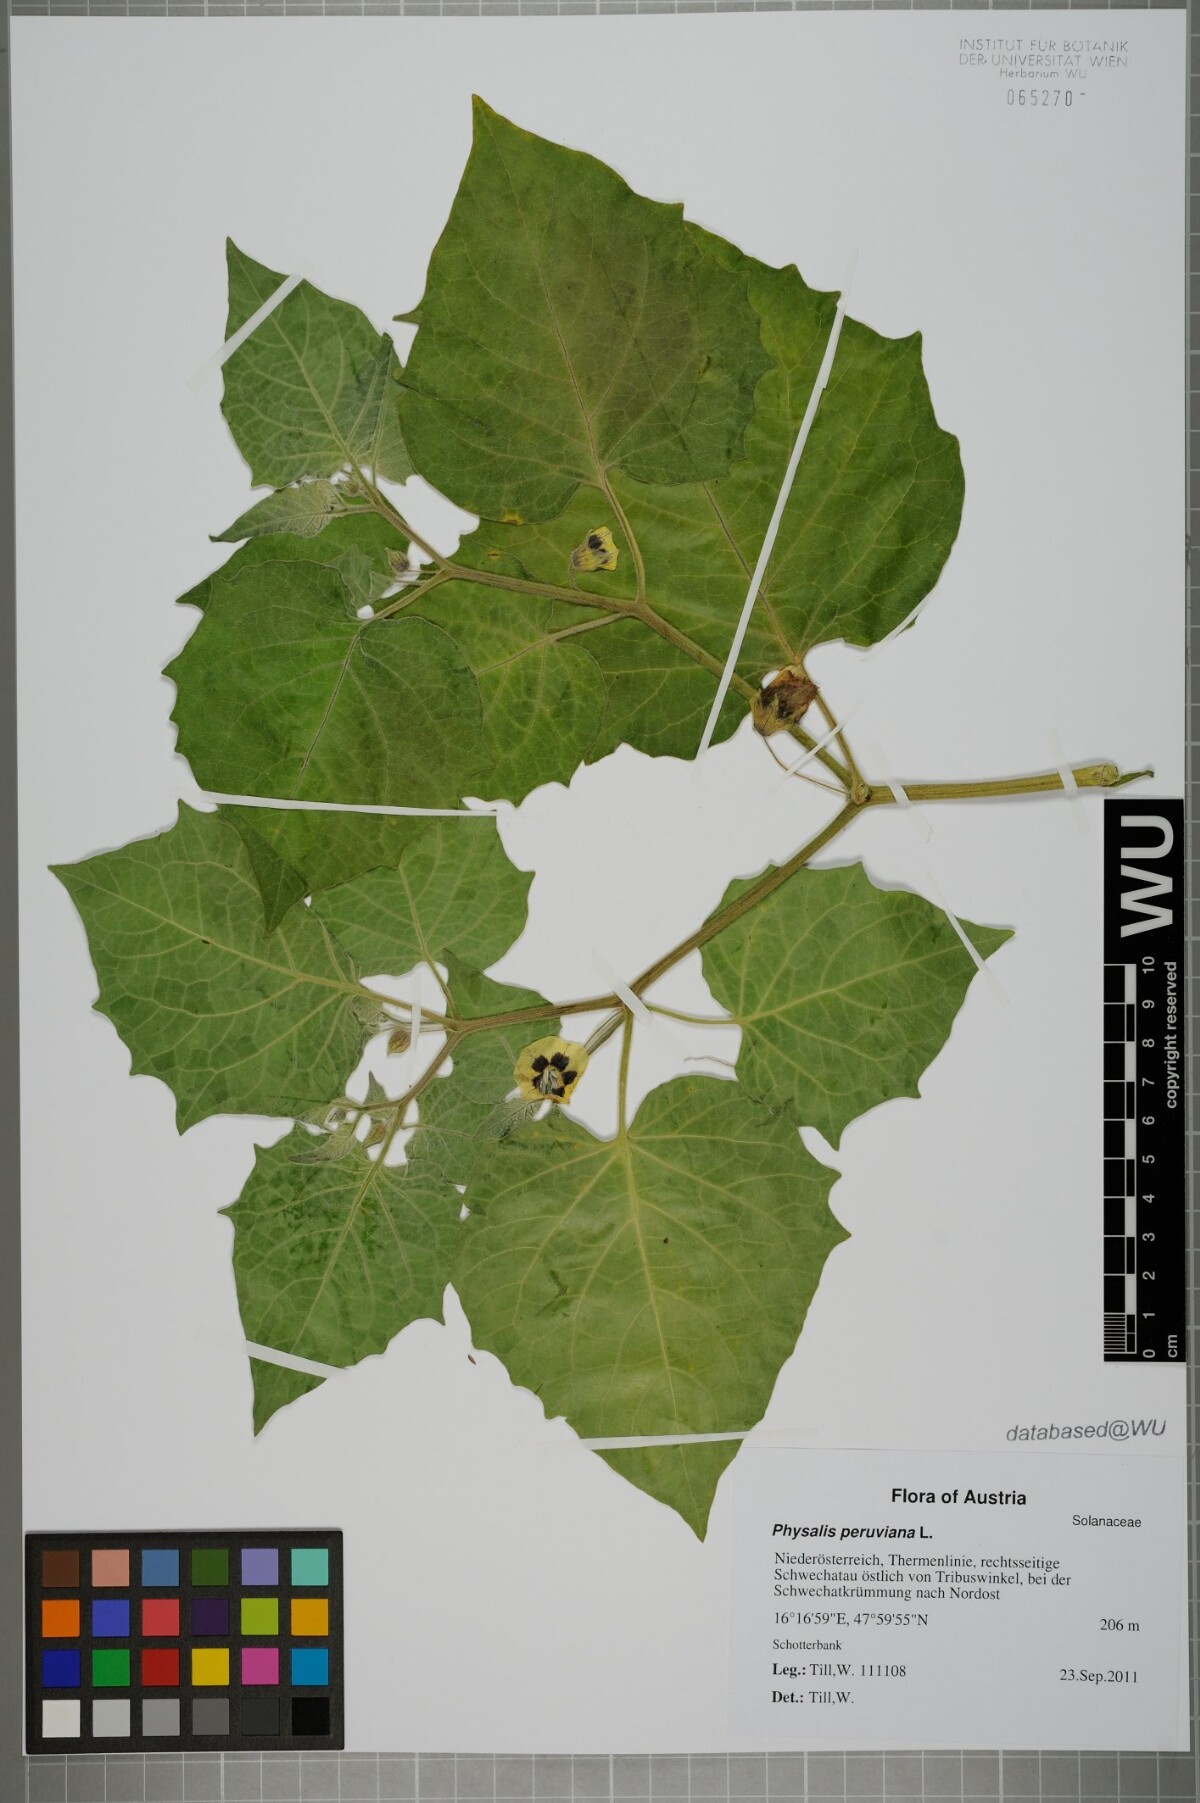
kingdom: Plantae
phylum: Tracheophyta
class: Magnoliopsida
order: Solanales
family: Solanaceae
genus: Physalis
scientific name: Physalis peruviana
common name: Cape-gooseberry
